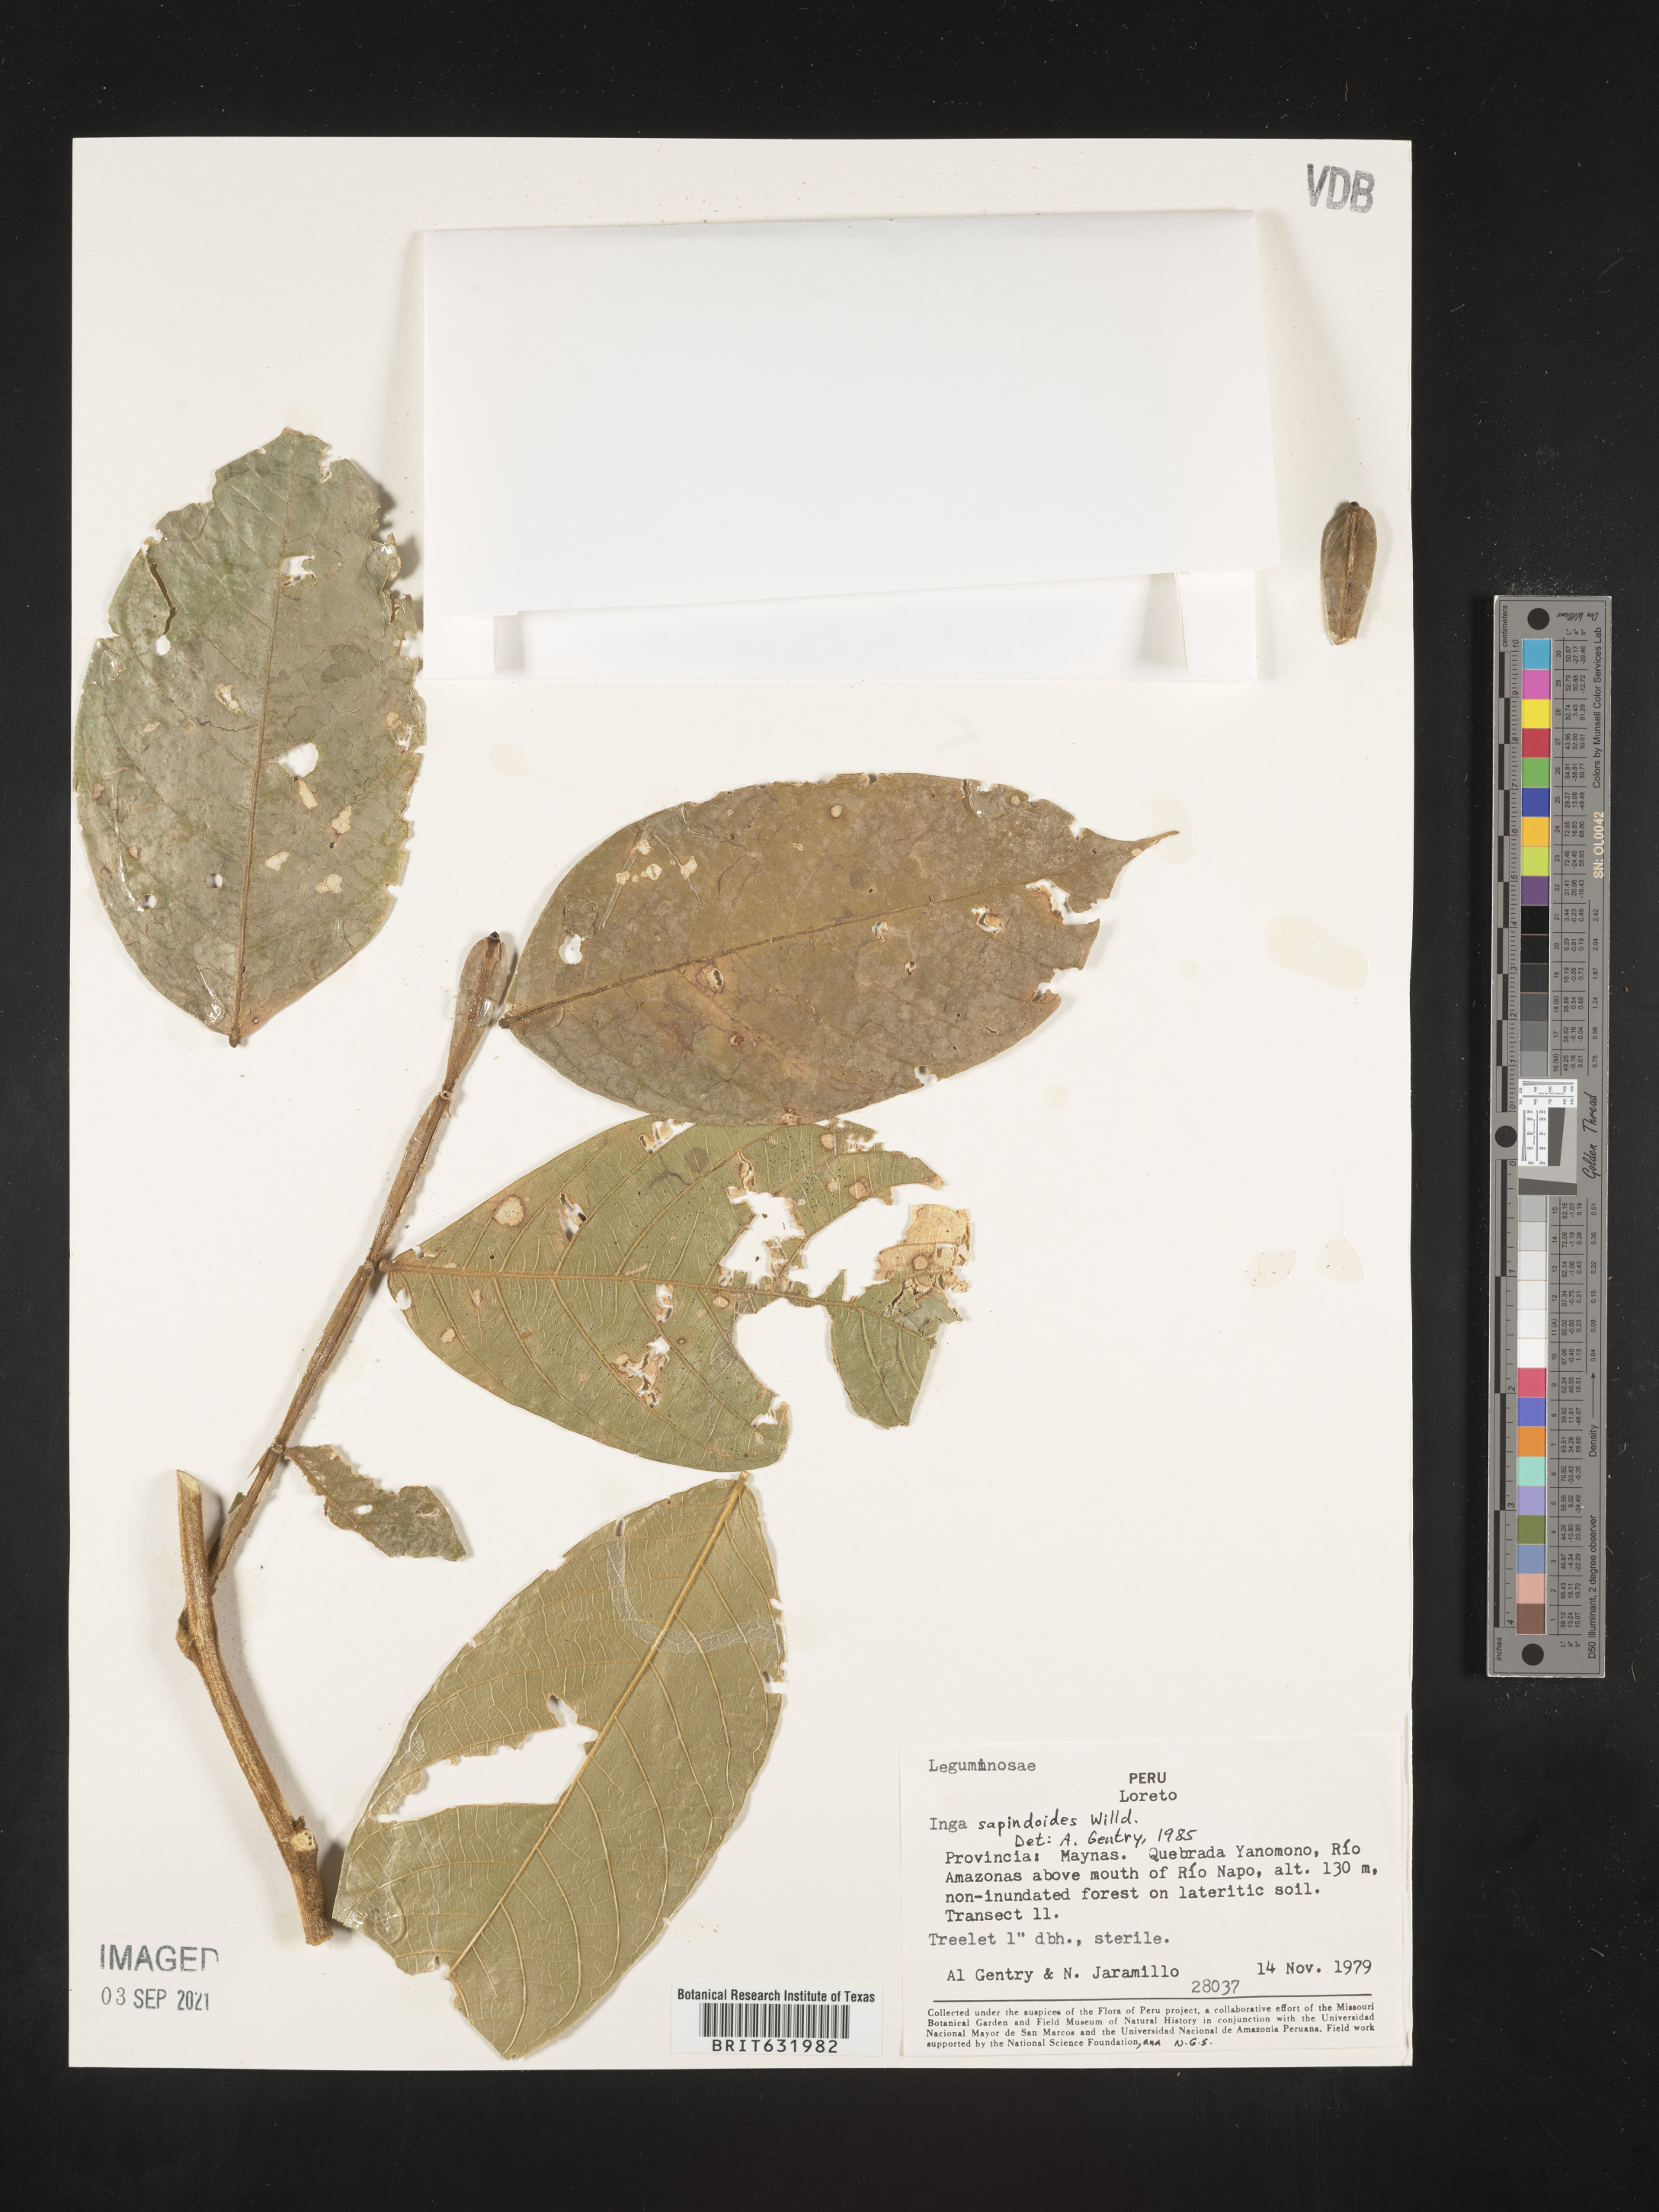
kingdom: Plantae
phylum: Tracheophyta
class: Magnoliopsida
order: Fabales
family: Fabaceae
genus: Inga
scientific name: Inga
